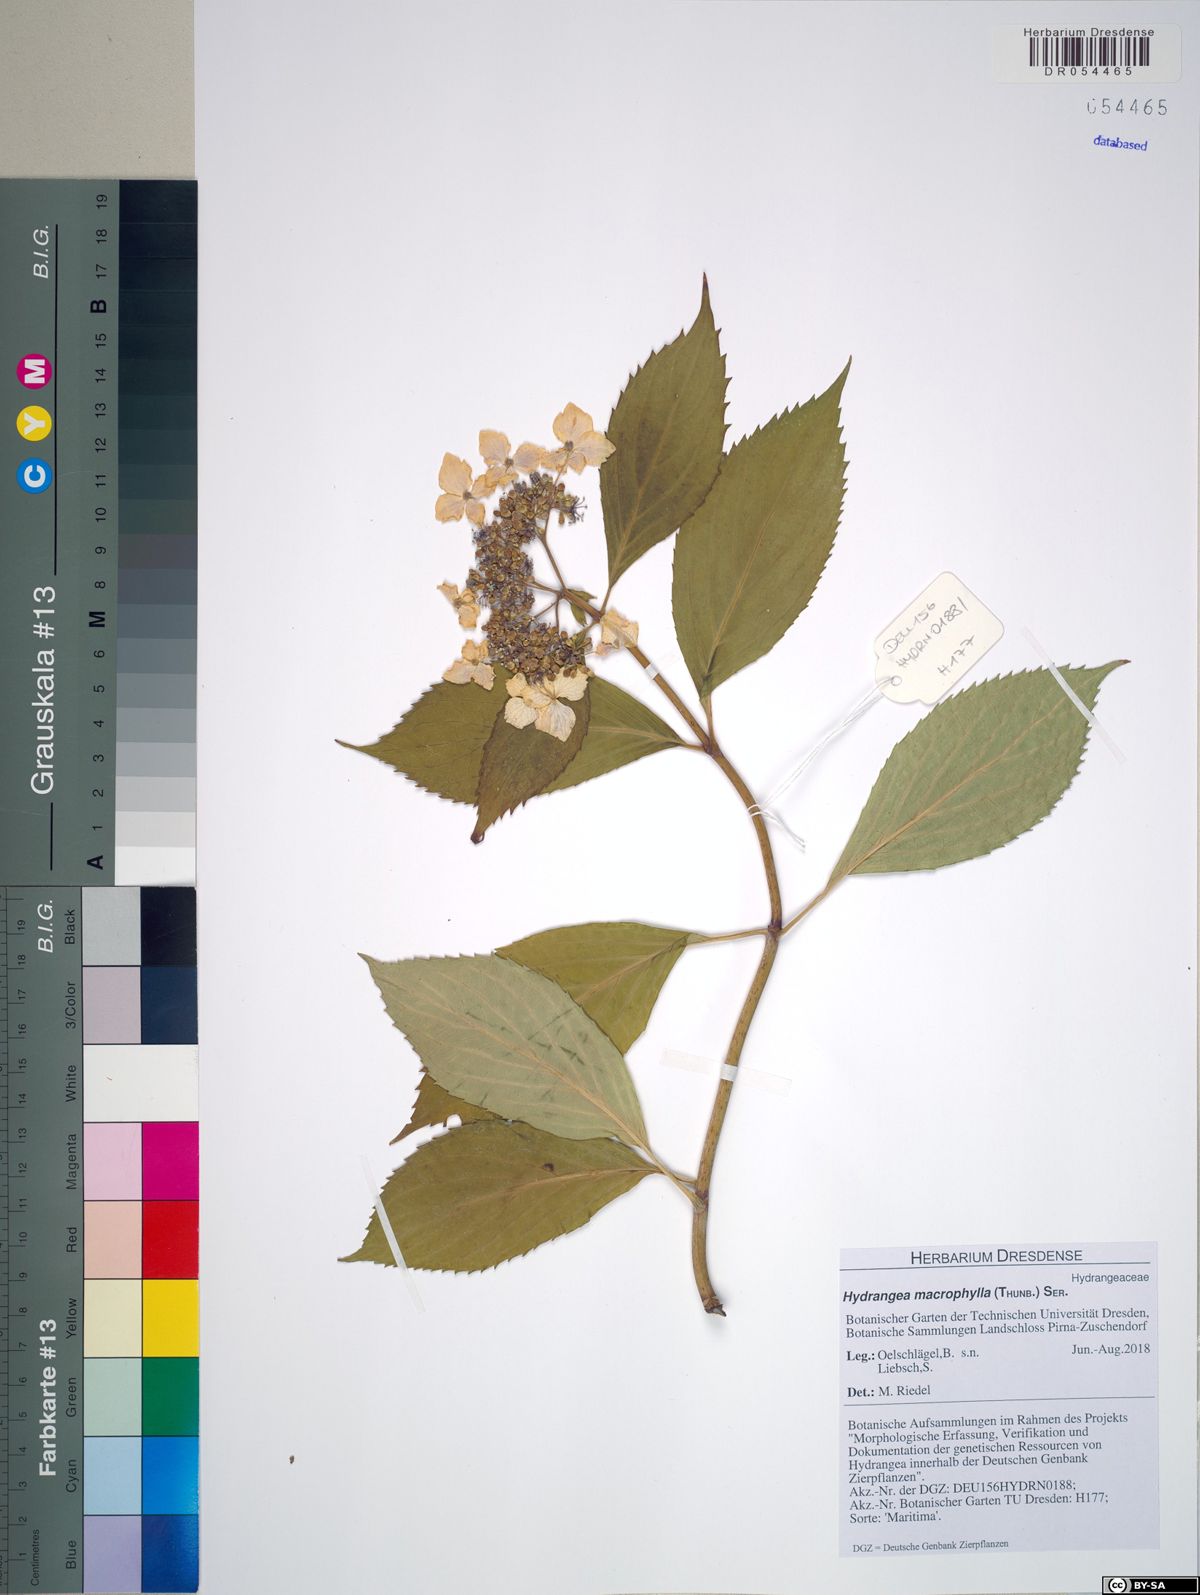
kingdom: Plantae
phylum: Tracheophyta
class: Magnoliopsida
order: Cornales
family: Hydrangeaceae
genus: Hydrangea
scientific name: Hydrangea macrophylla
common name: Hydrangea
